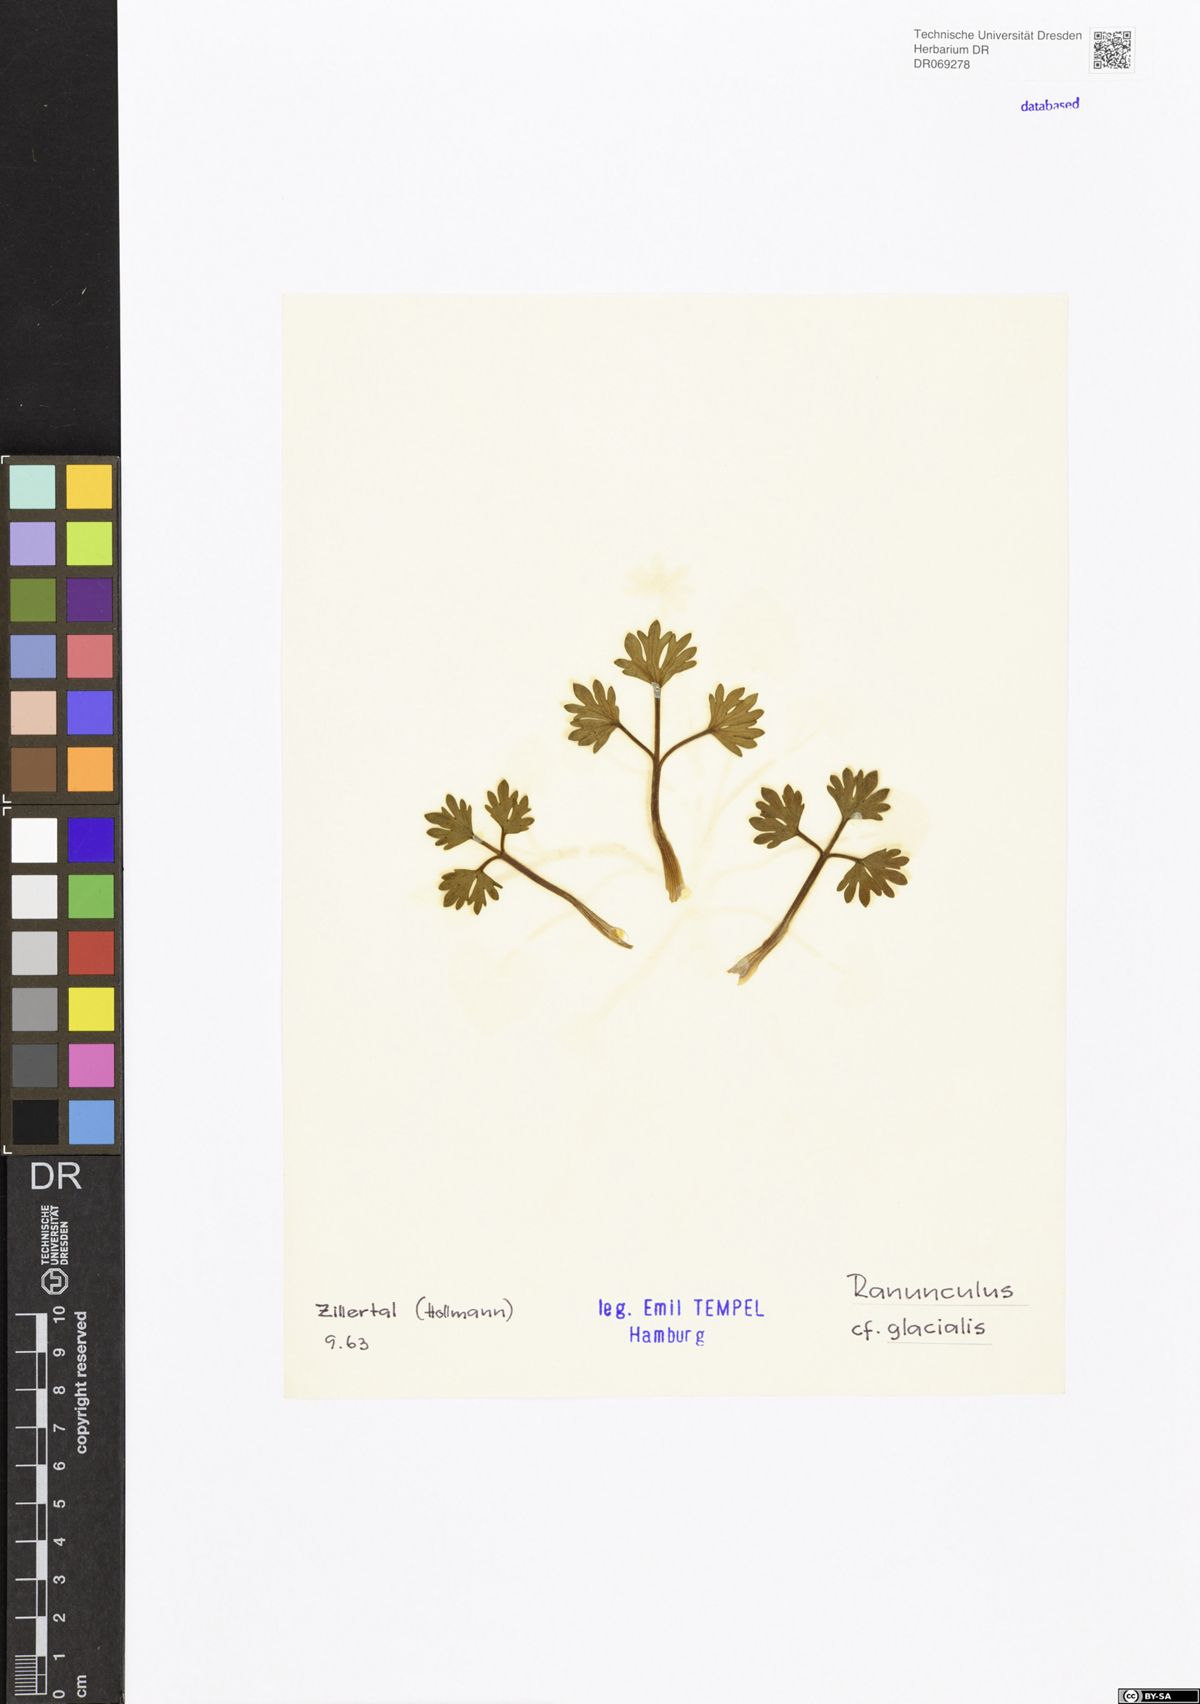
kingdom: Plantae
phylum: Tracheophyta
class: Magnoliopsida
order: Ranunculales
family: Ranunculaceae
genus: Ranunculus
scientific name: Ranunculus glacialis
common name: Glacier buttercup
